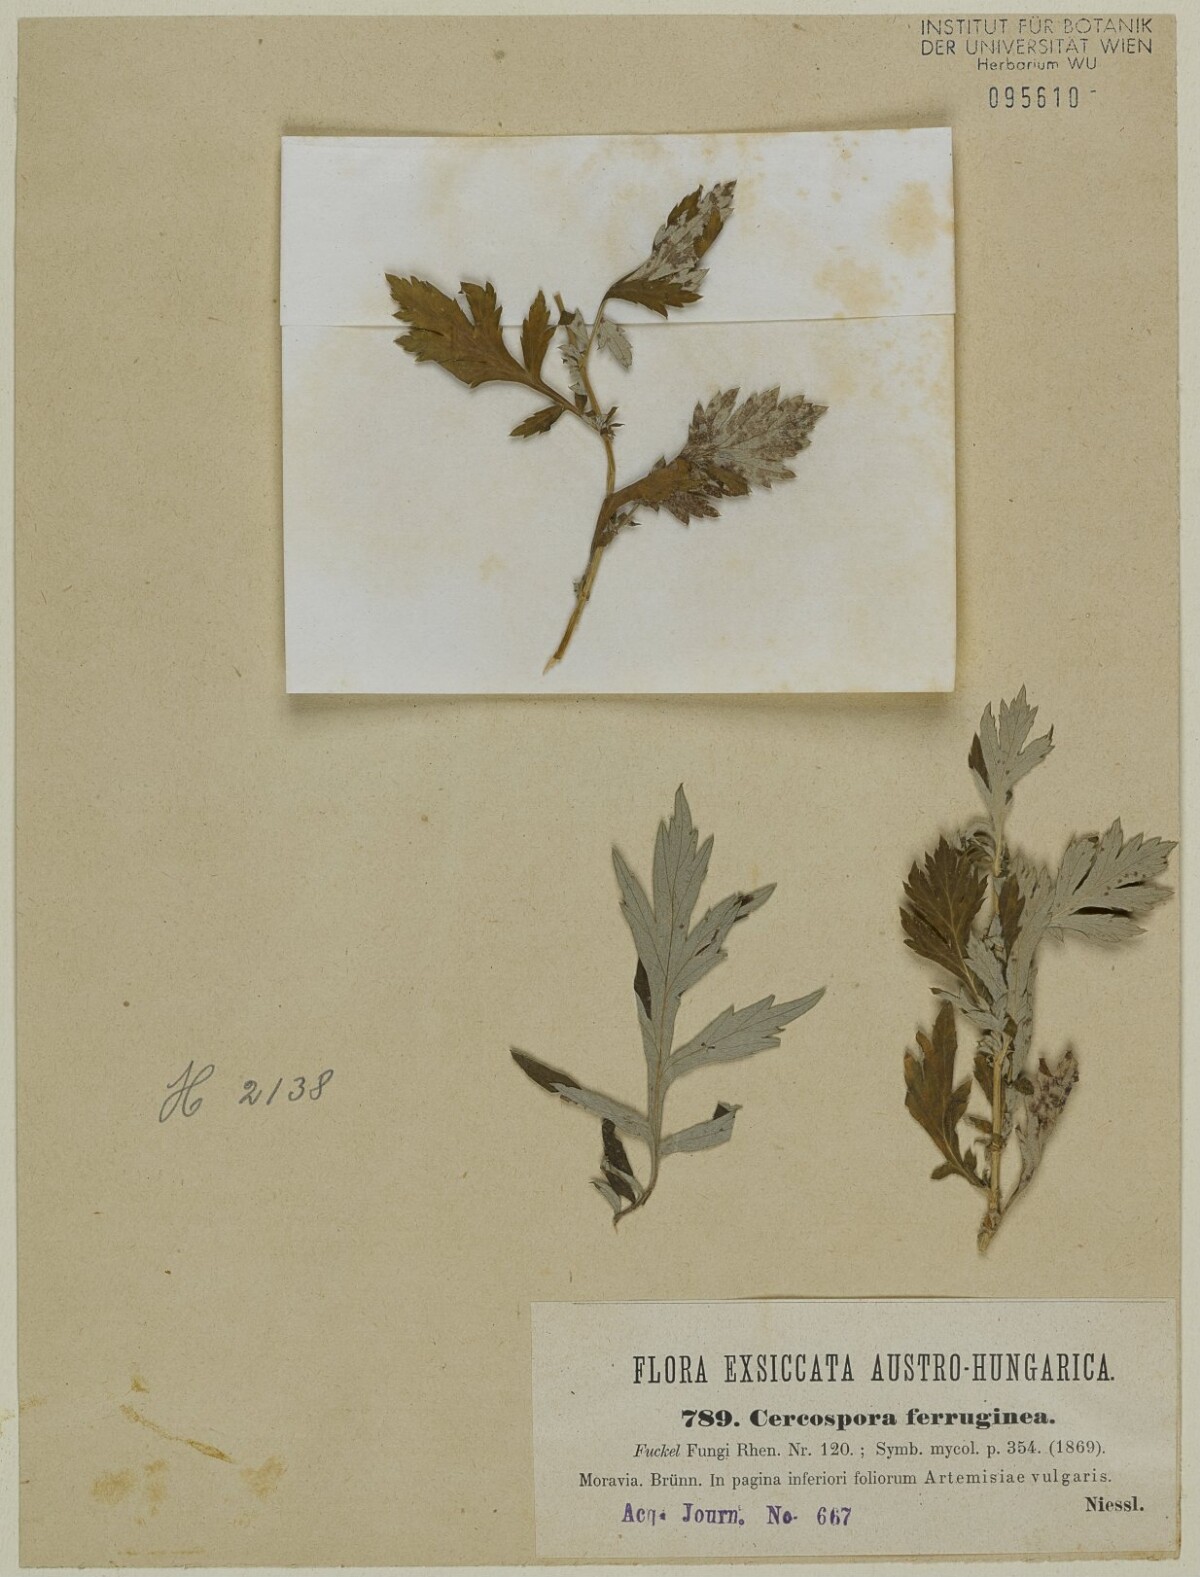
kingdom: Fungi
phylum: Ascomycota
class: Dothideomycetes
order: Mycosphaerellales
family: Mycosphaerellaceae
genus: Ragnhildiana
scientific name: Ragnhildiana ferruginea
